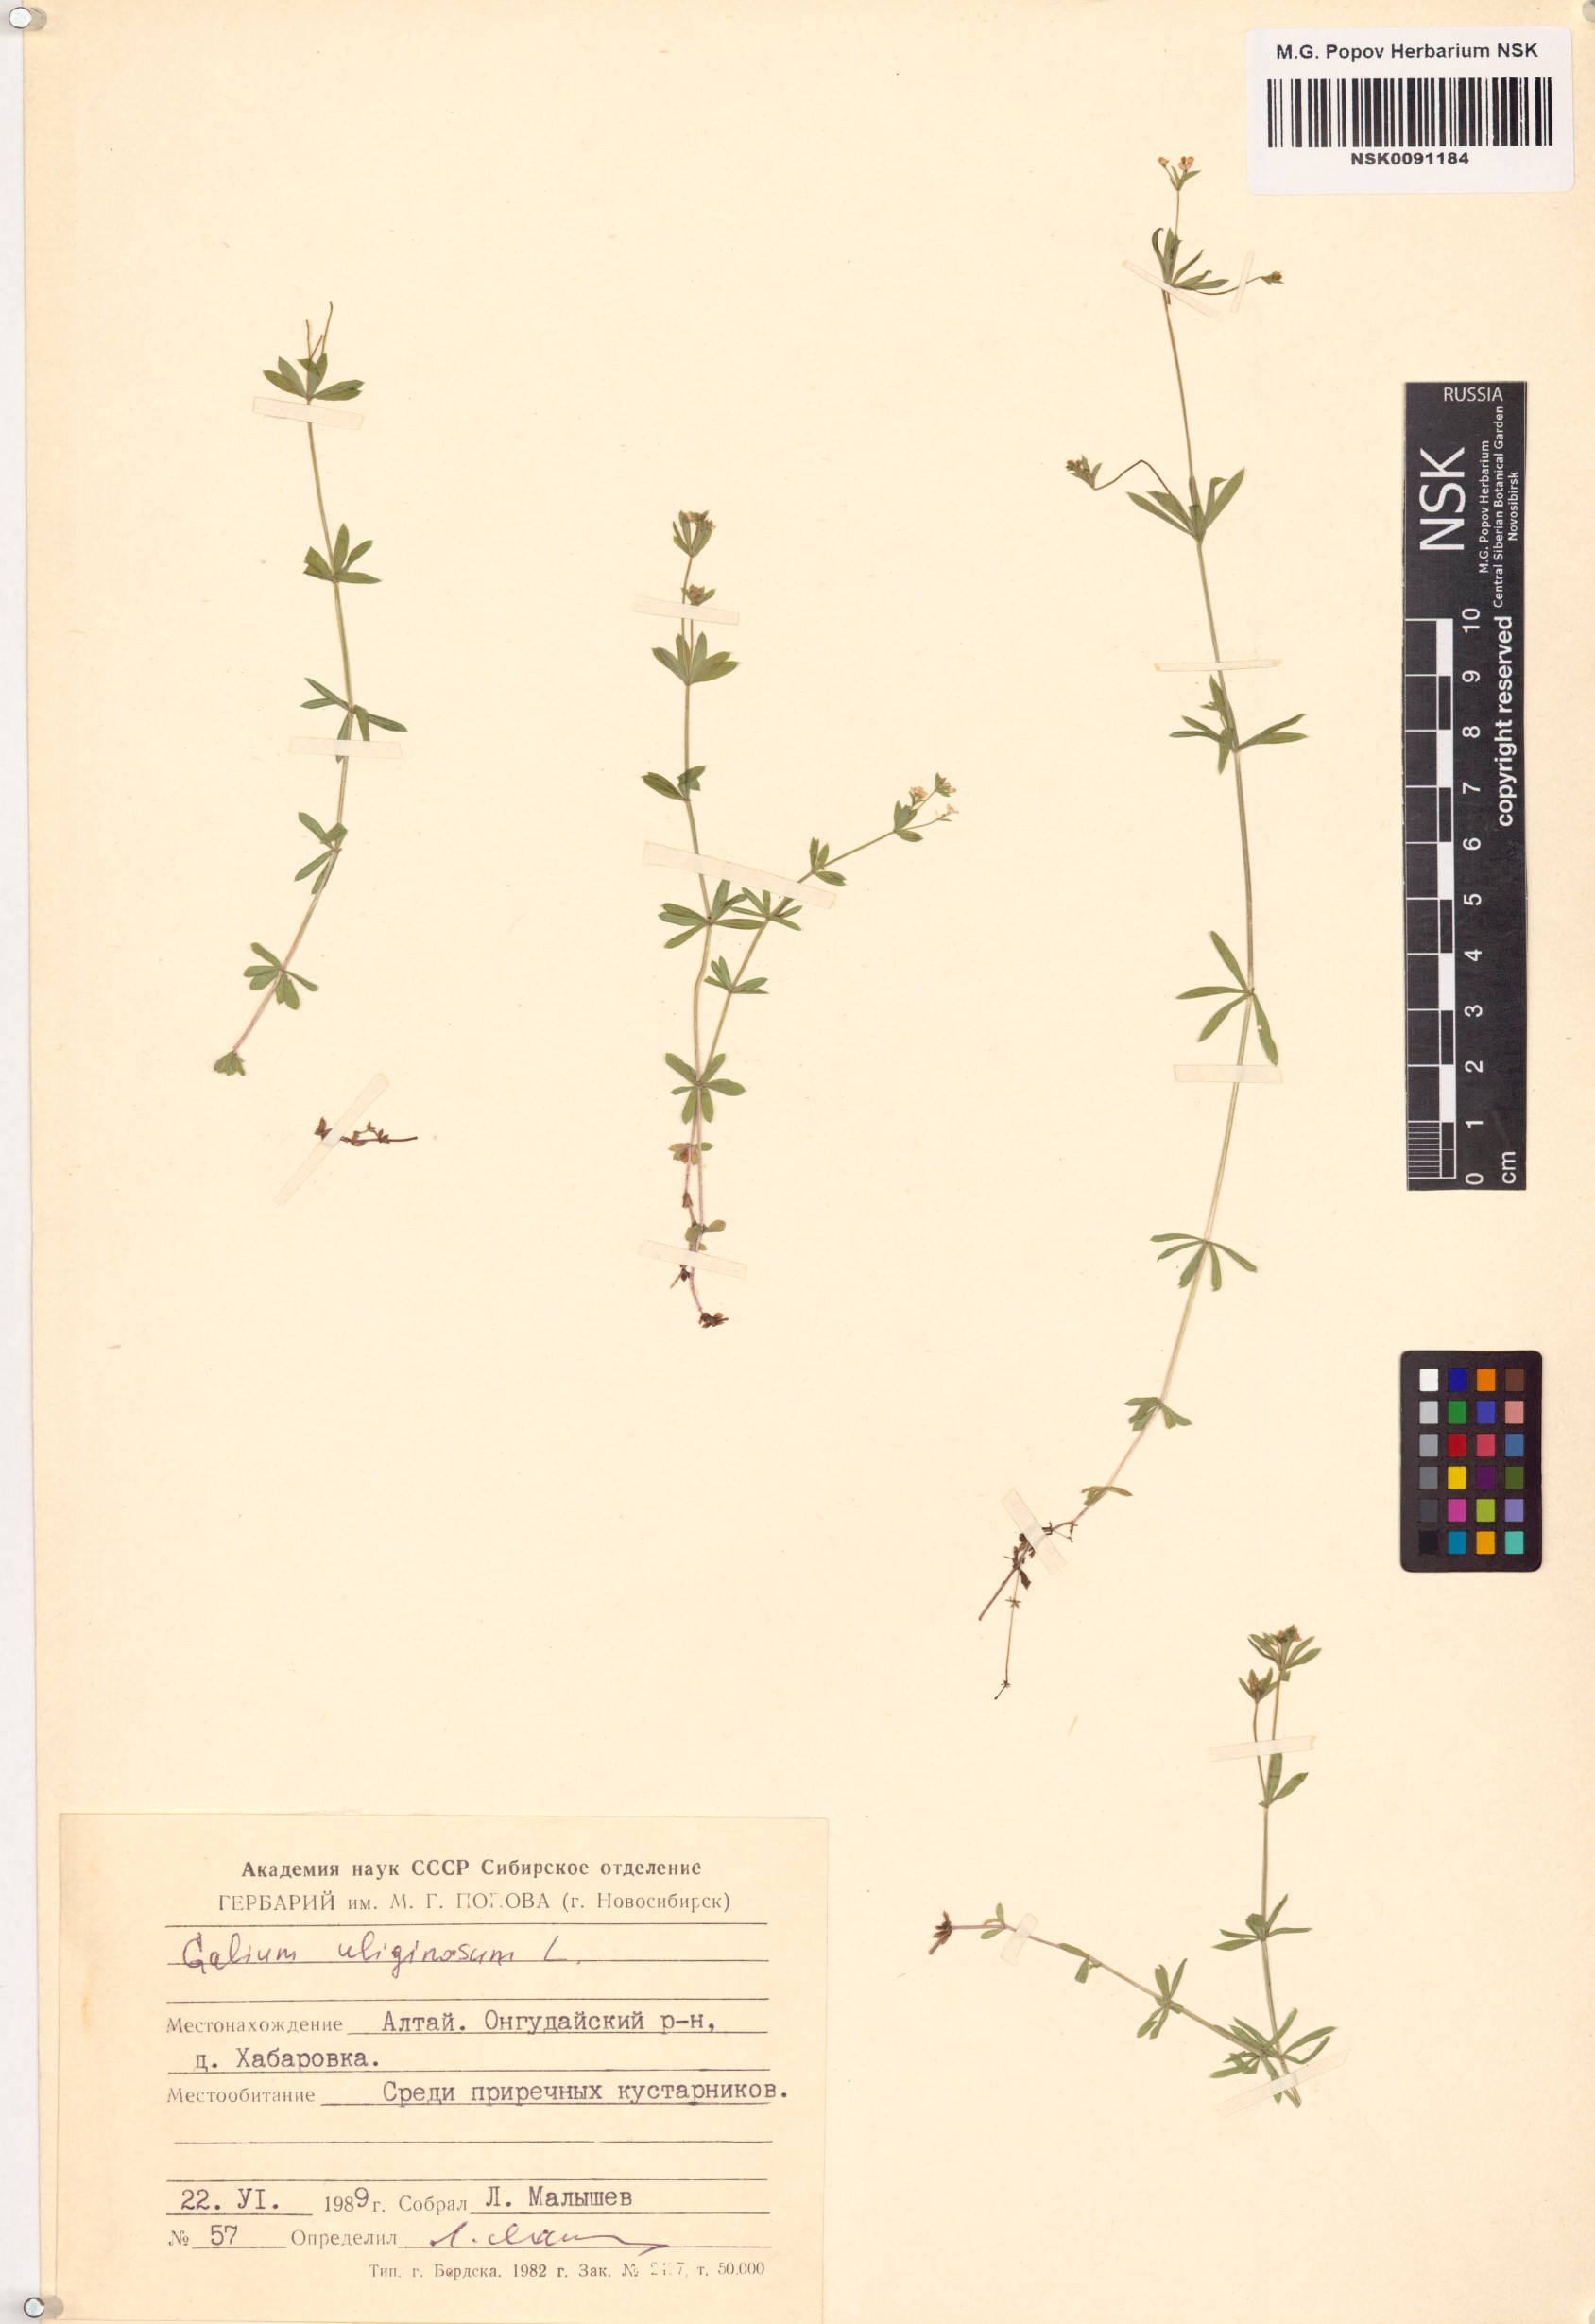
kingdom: Plantae
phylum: Tracheophyta
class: Magnoliopsida
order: Gentianales
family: Rubiaceae
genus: Galium
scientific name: Galium uliginosum
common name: Fen bedstraw
